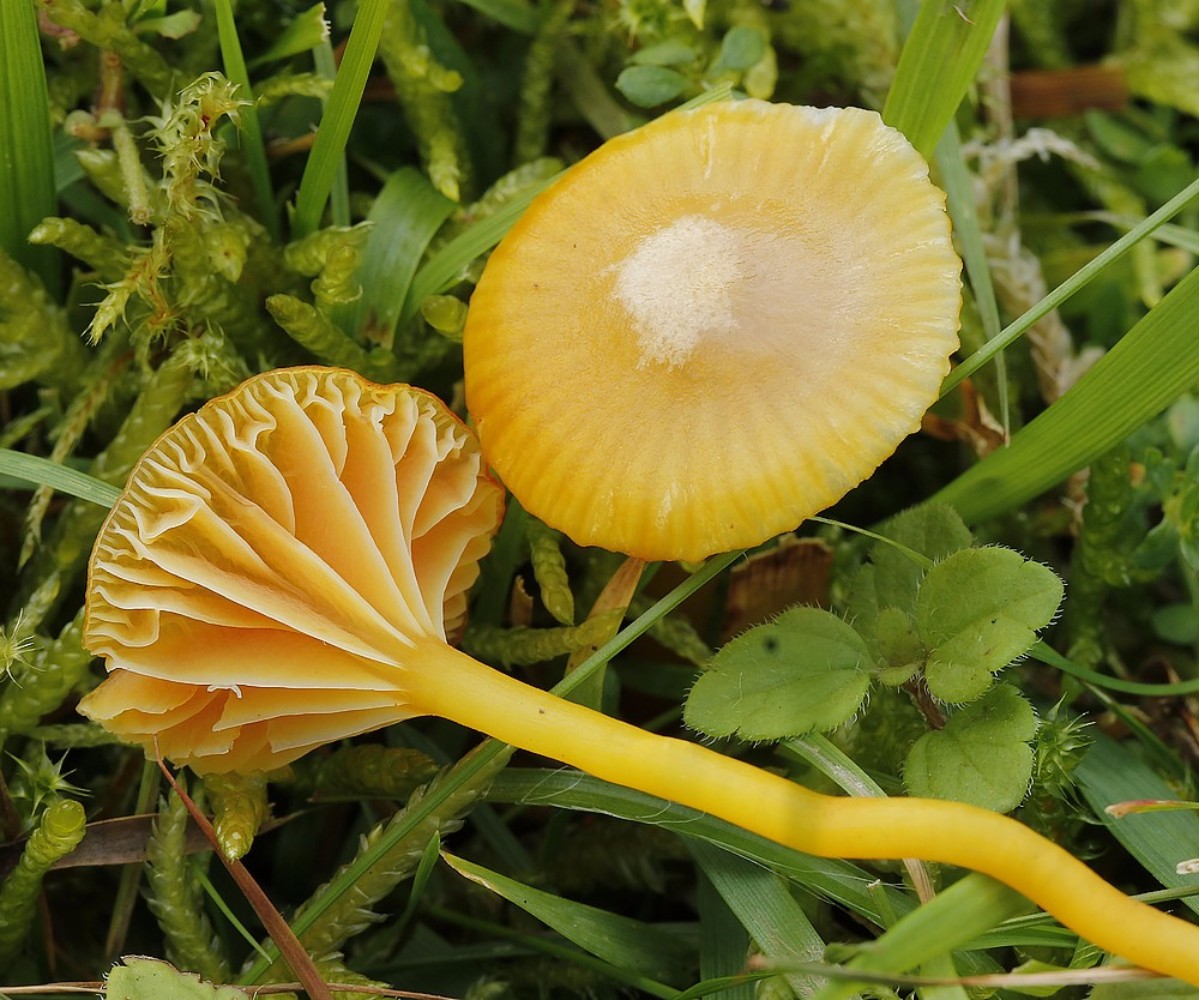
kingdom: Fungi
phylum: Basidiomycota
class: Agaricomycetes
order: Agaricales
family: Hygrophoraceae
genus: Hygrocybe
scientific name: Hygrocybe
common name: vokshat
